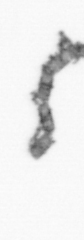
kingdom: Chromista
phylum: Ochrophyta
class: Bacillariophyceae
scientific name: Bacillariophyceae
